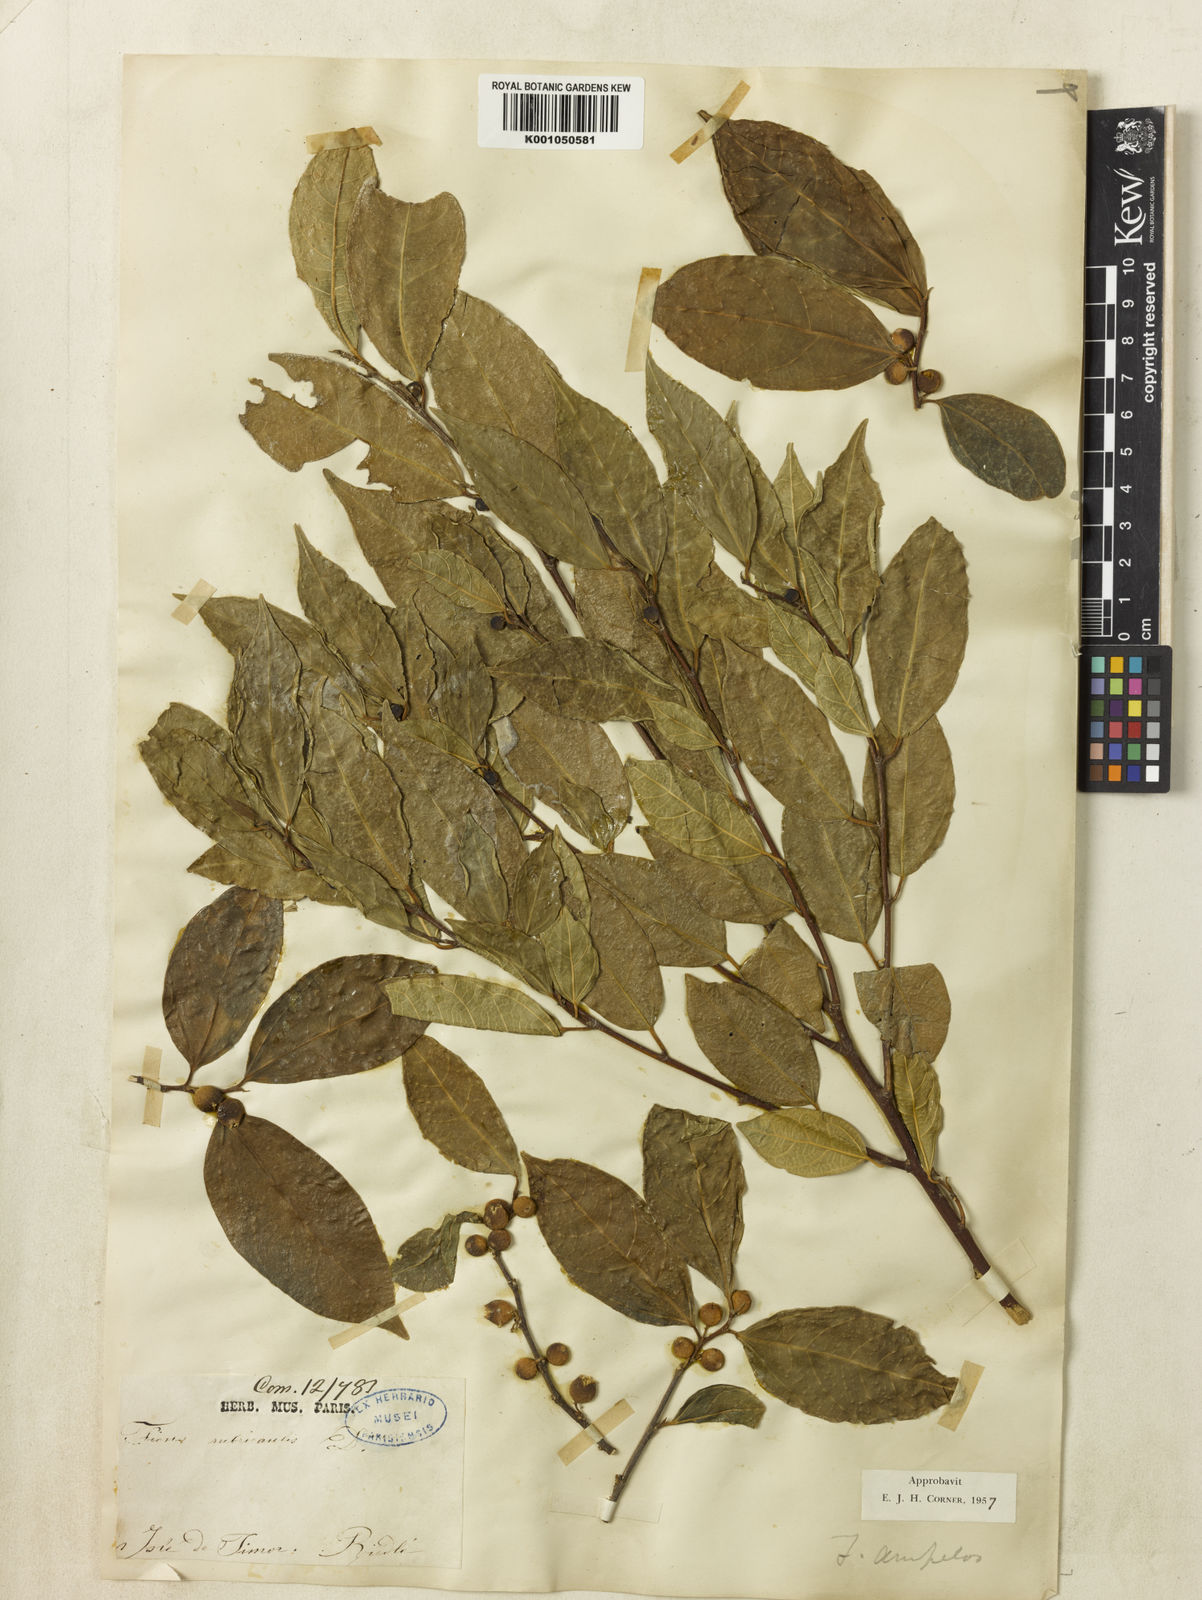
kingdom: Plantae
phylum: Tracheophyta
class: Magnoliopsida
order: Rosales
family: Moraceae
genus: Ficus
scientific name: Ficus
